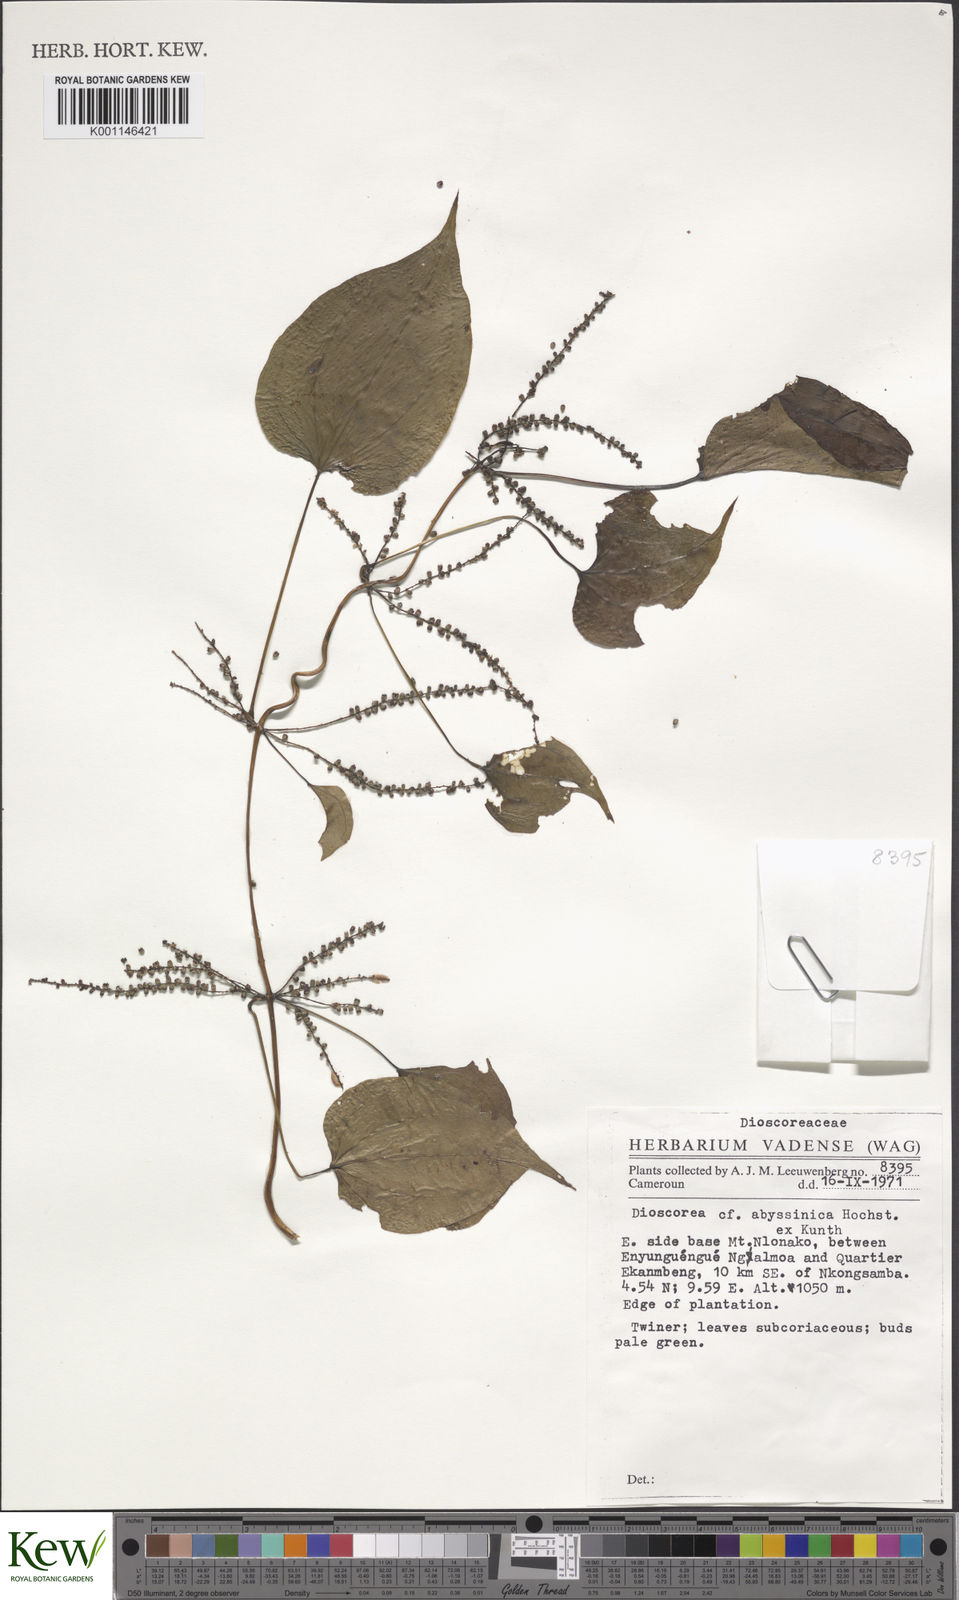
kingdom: Plantae
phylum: Tracheophyta
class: Liliopsida
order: Dioscoreales
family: Dioscoreaceae
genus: Dioscorea
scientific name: Dioscorea abyssinica
